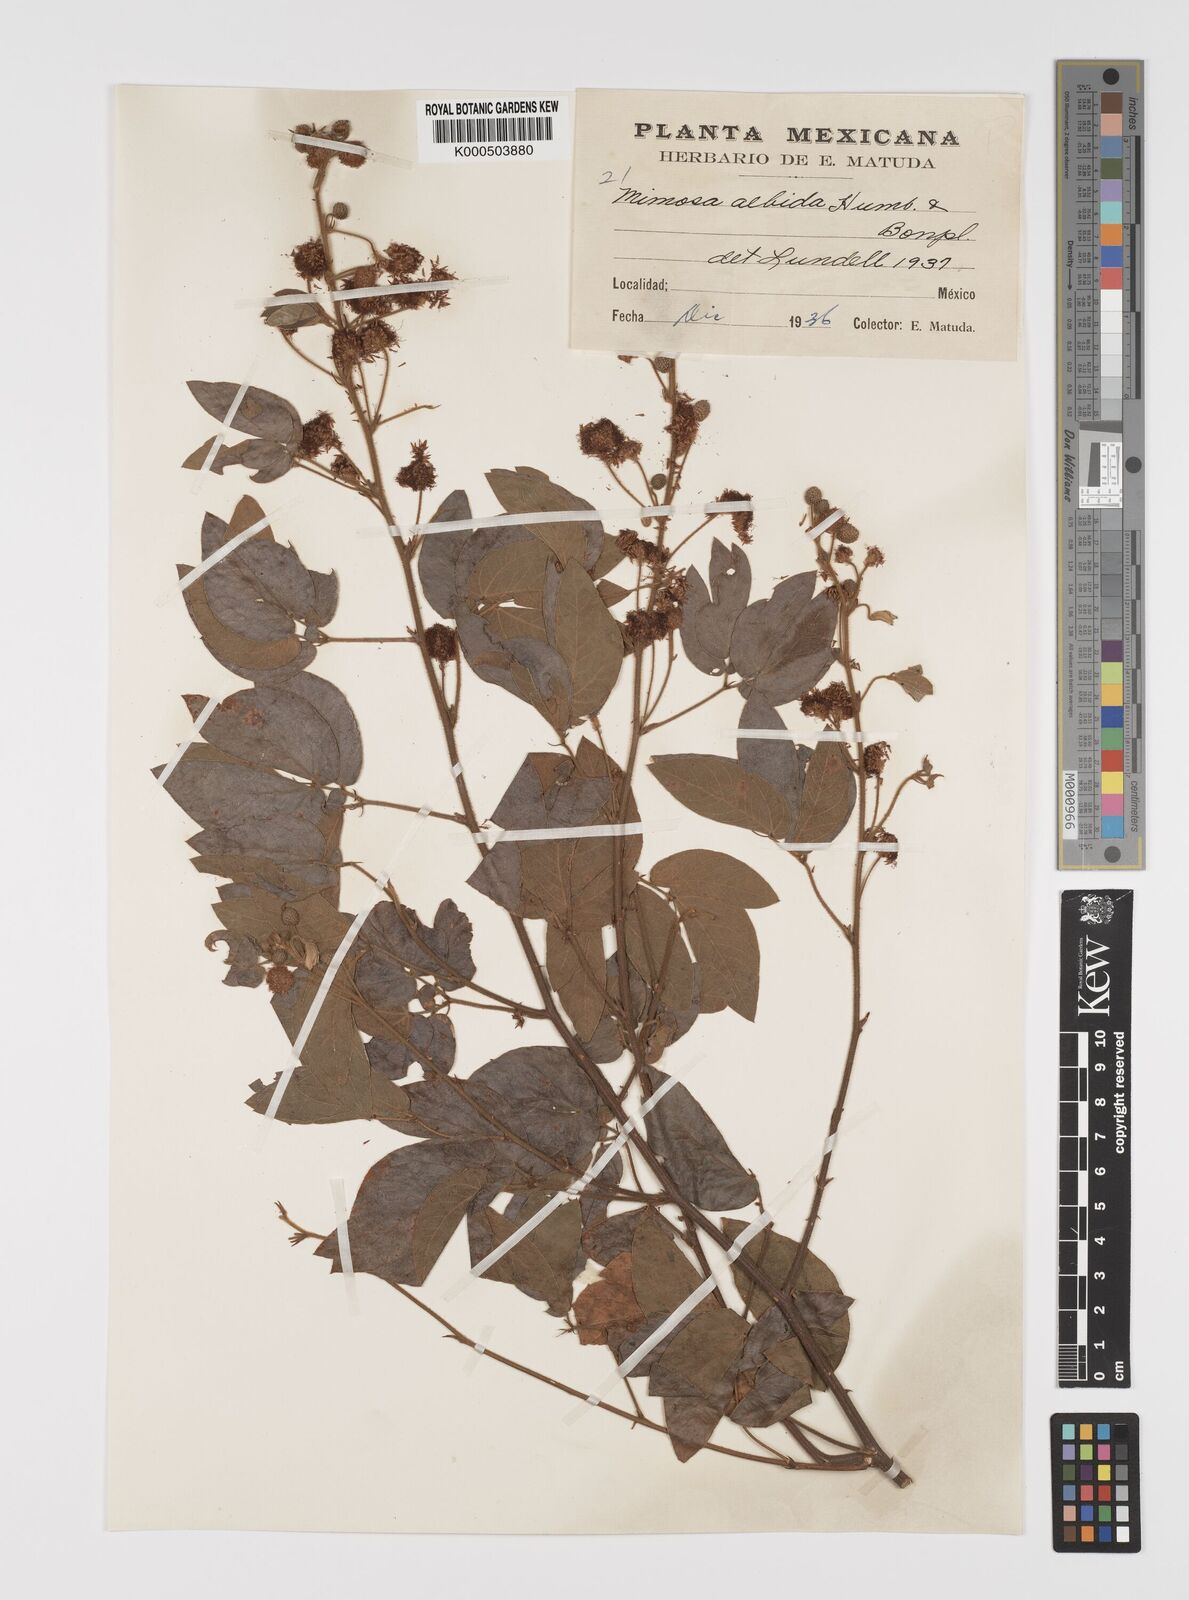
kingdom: Plantae
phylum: Tracheophyta
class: Magnoliopsida
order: Fabales
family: Fabaceae
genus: Mimosa
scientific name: Mimosa albida
